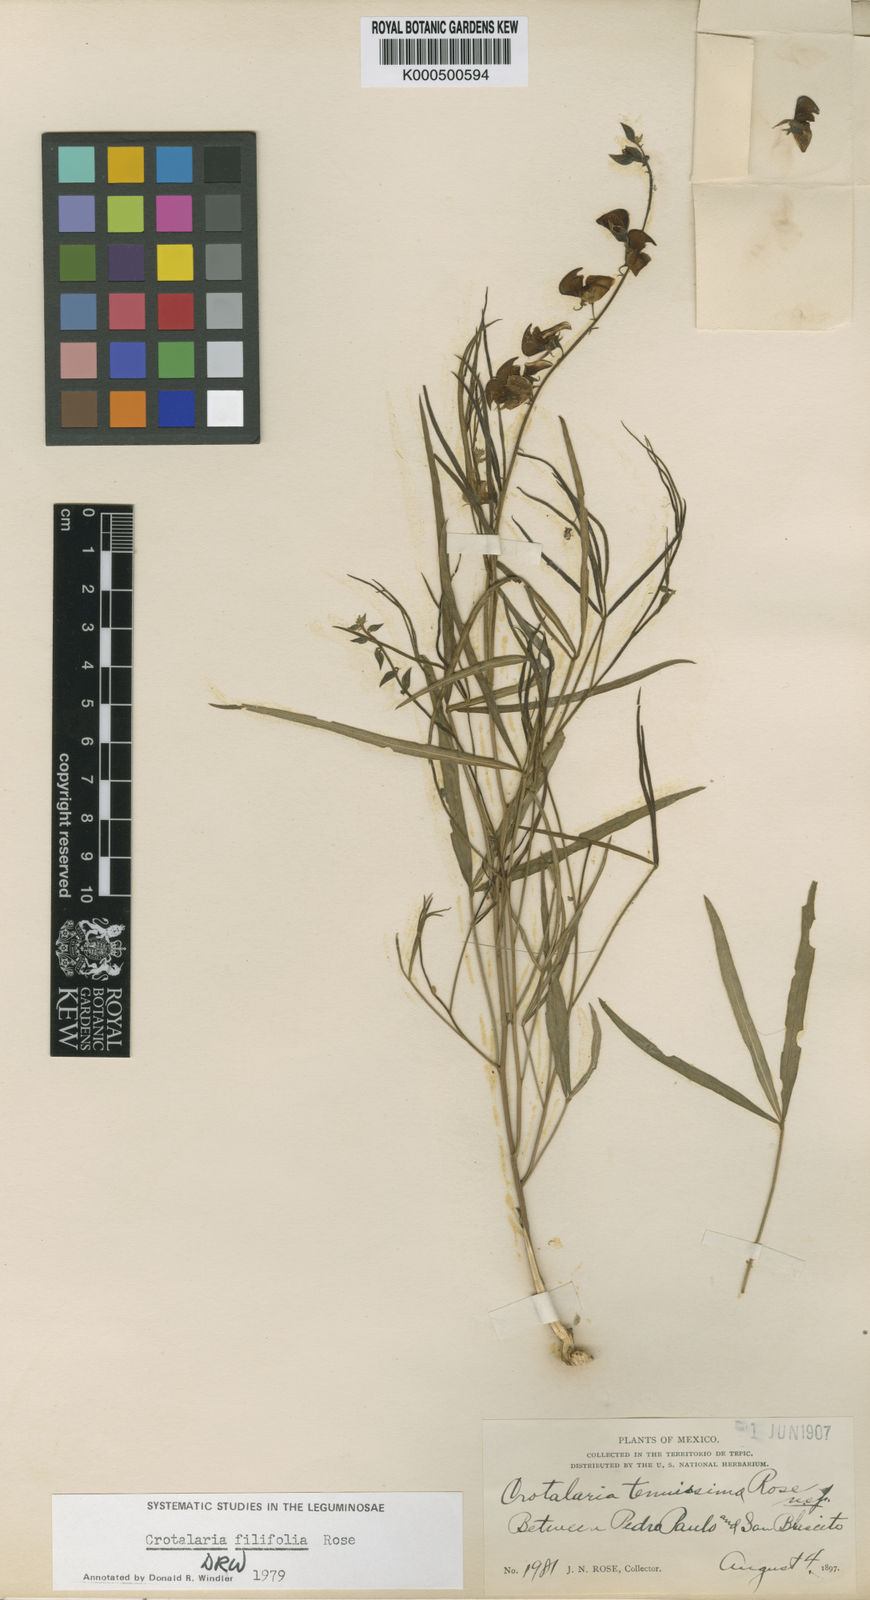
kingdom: Plantae
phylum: Tracheophyta
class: Magnoliopsida
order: Fabales
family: Fabaceae
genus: Crotalaria
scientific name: Crotalaria filifolia
